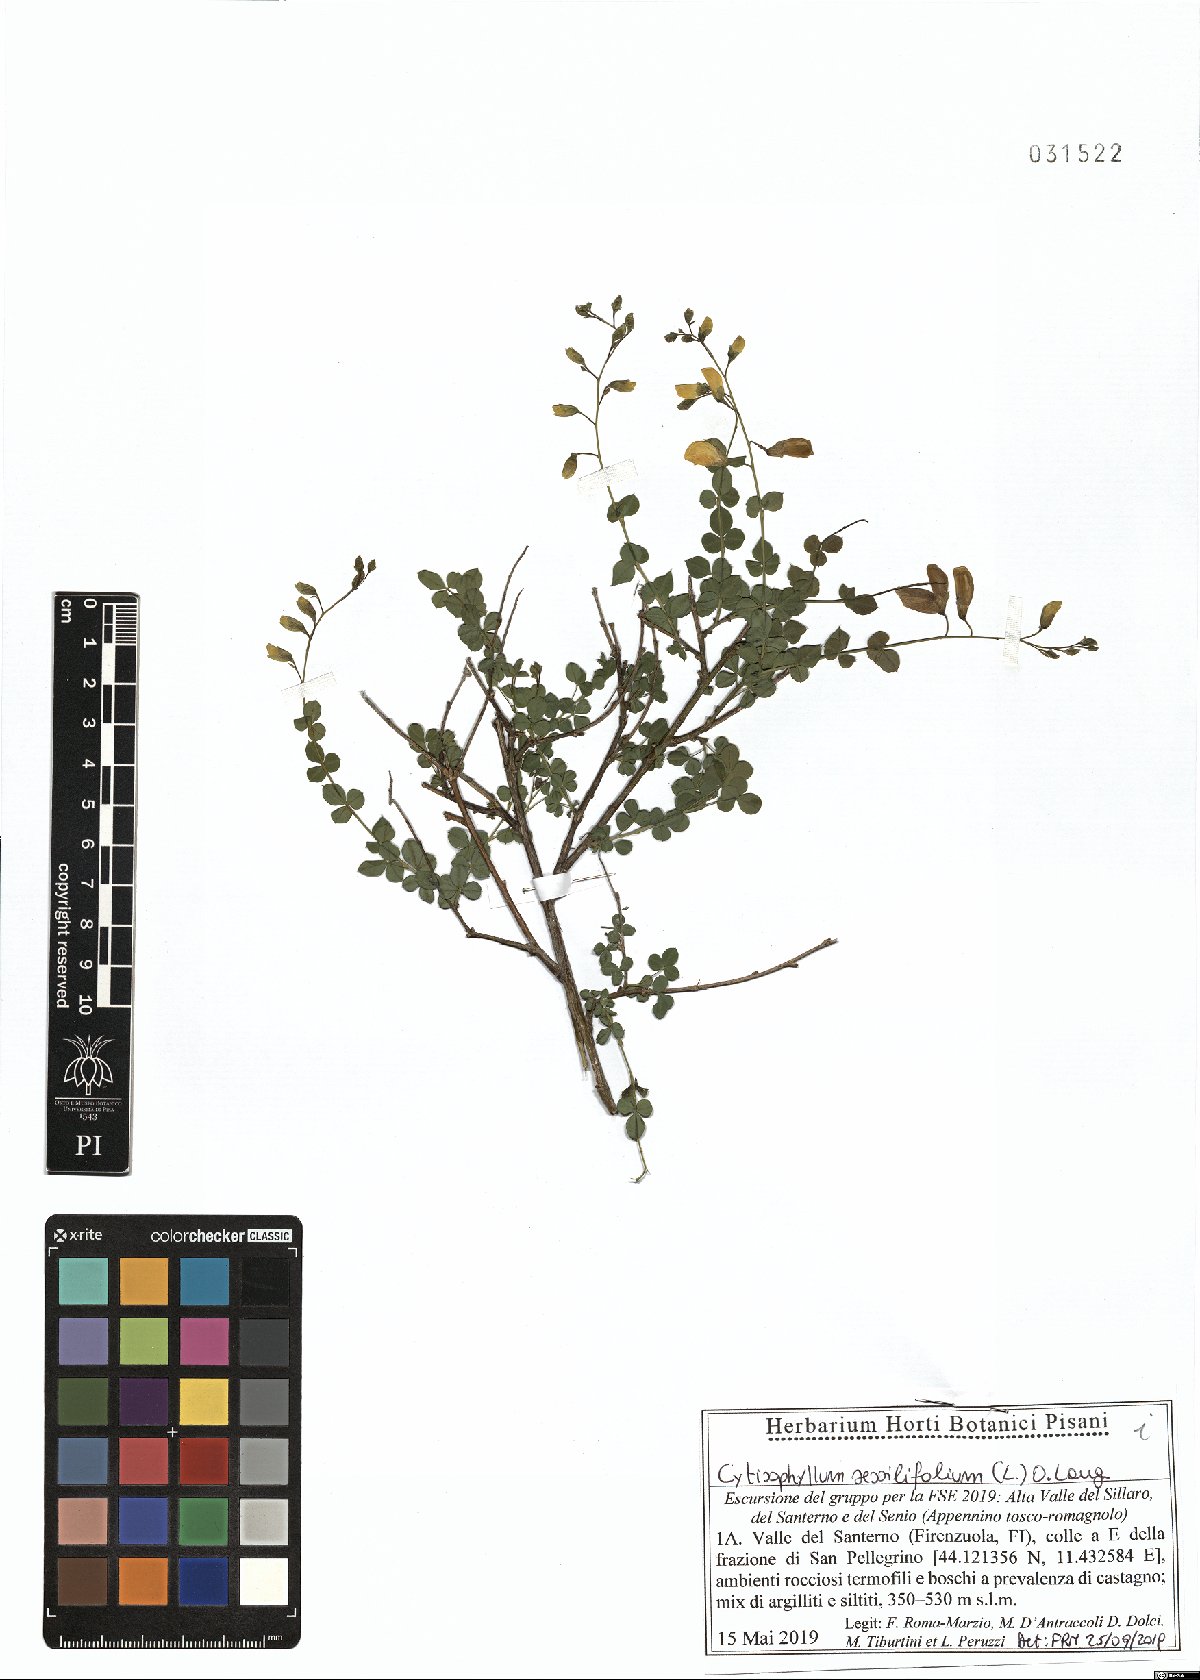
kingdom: Plantae
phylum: Tracheophyta
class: Magnoliopsida
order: Fabales
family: Fabaceae
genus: Cytisophyllum
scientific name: Cytisophyllum sessilifolium
